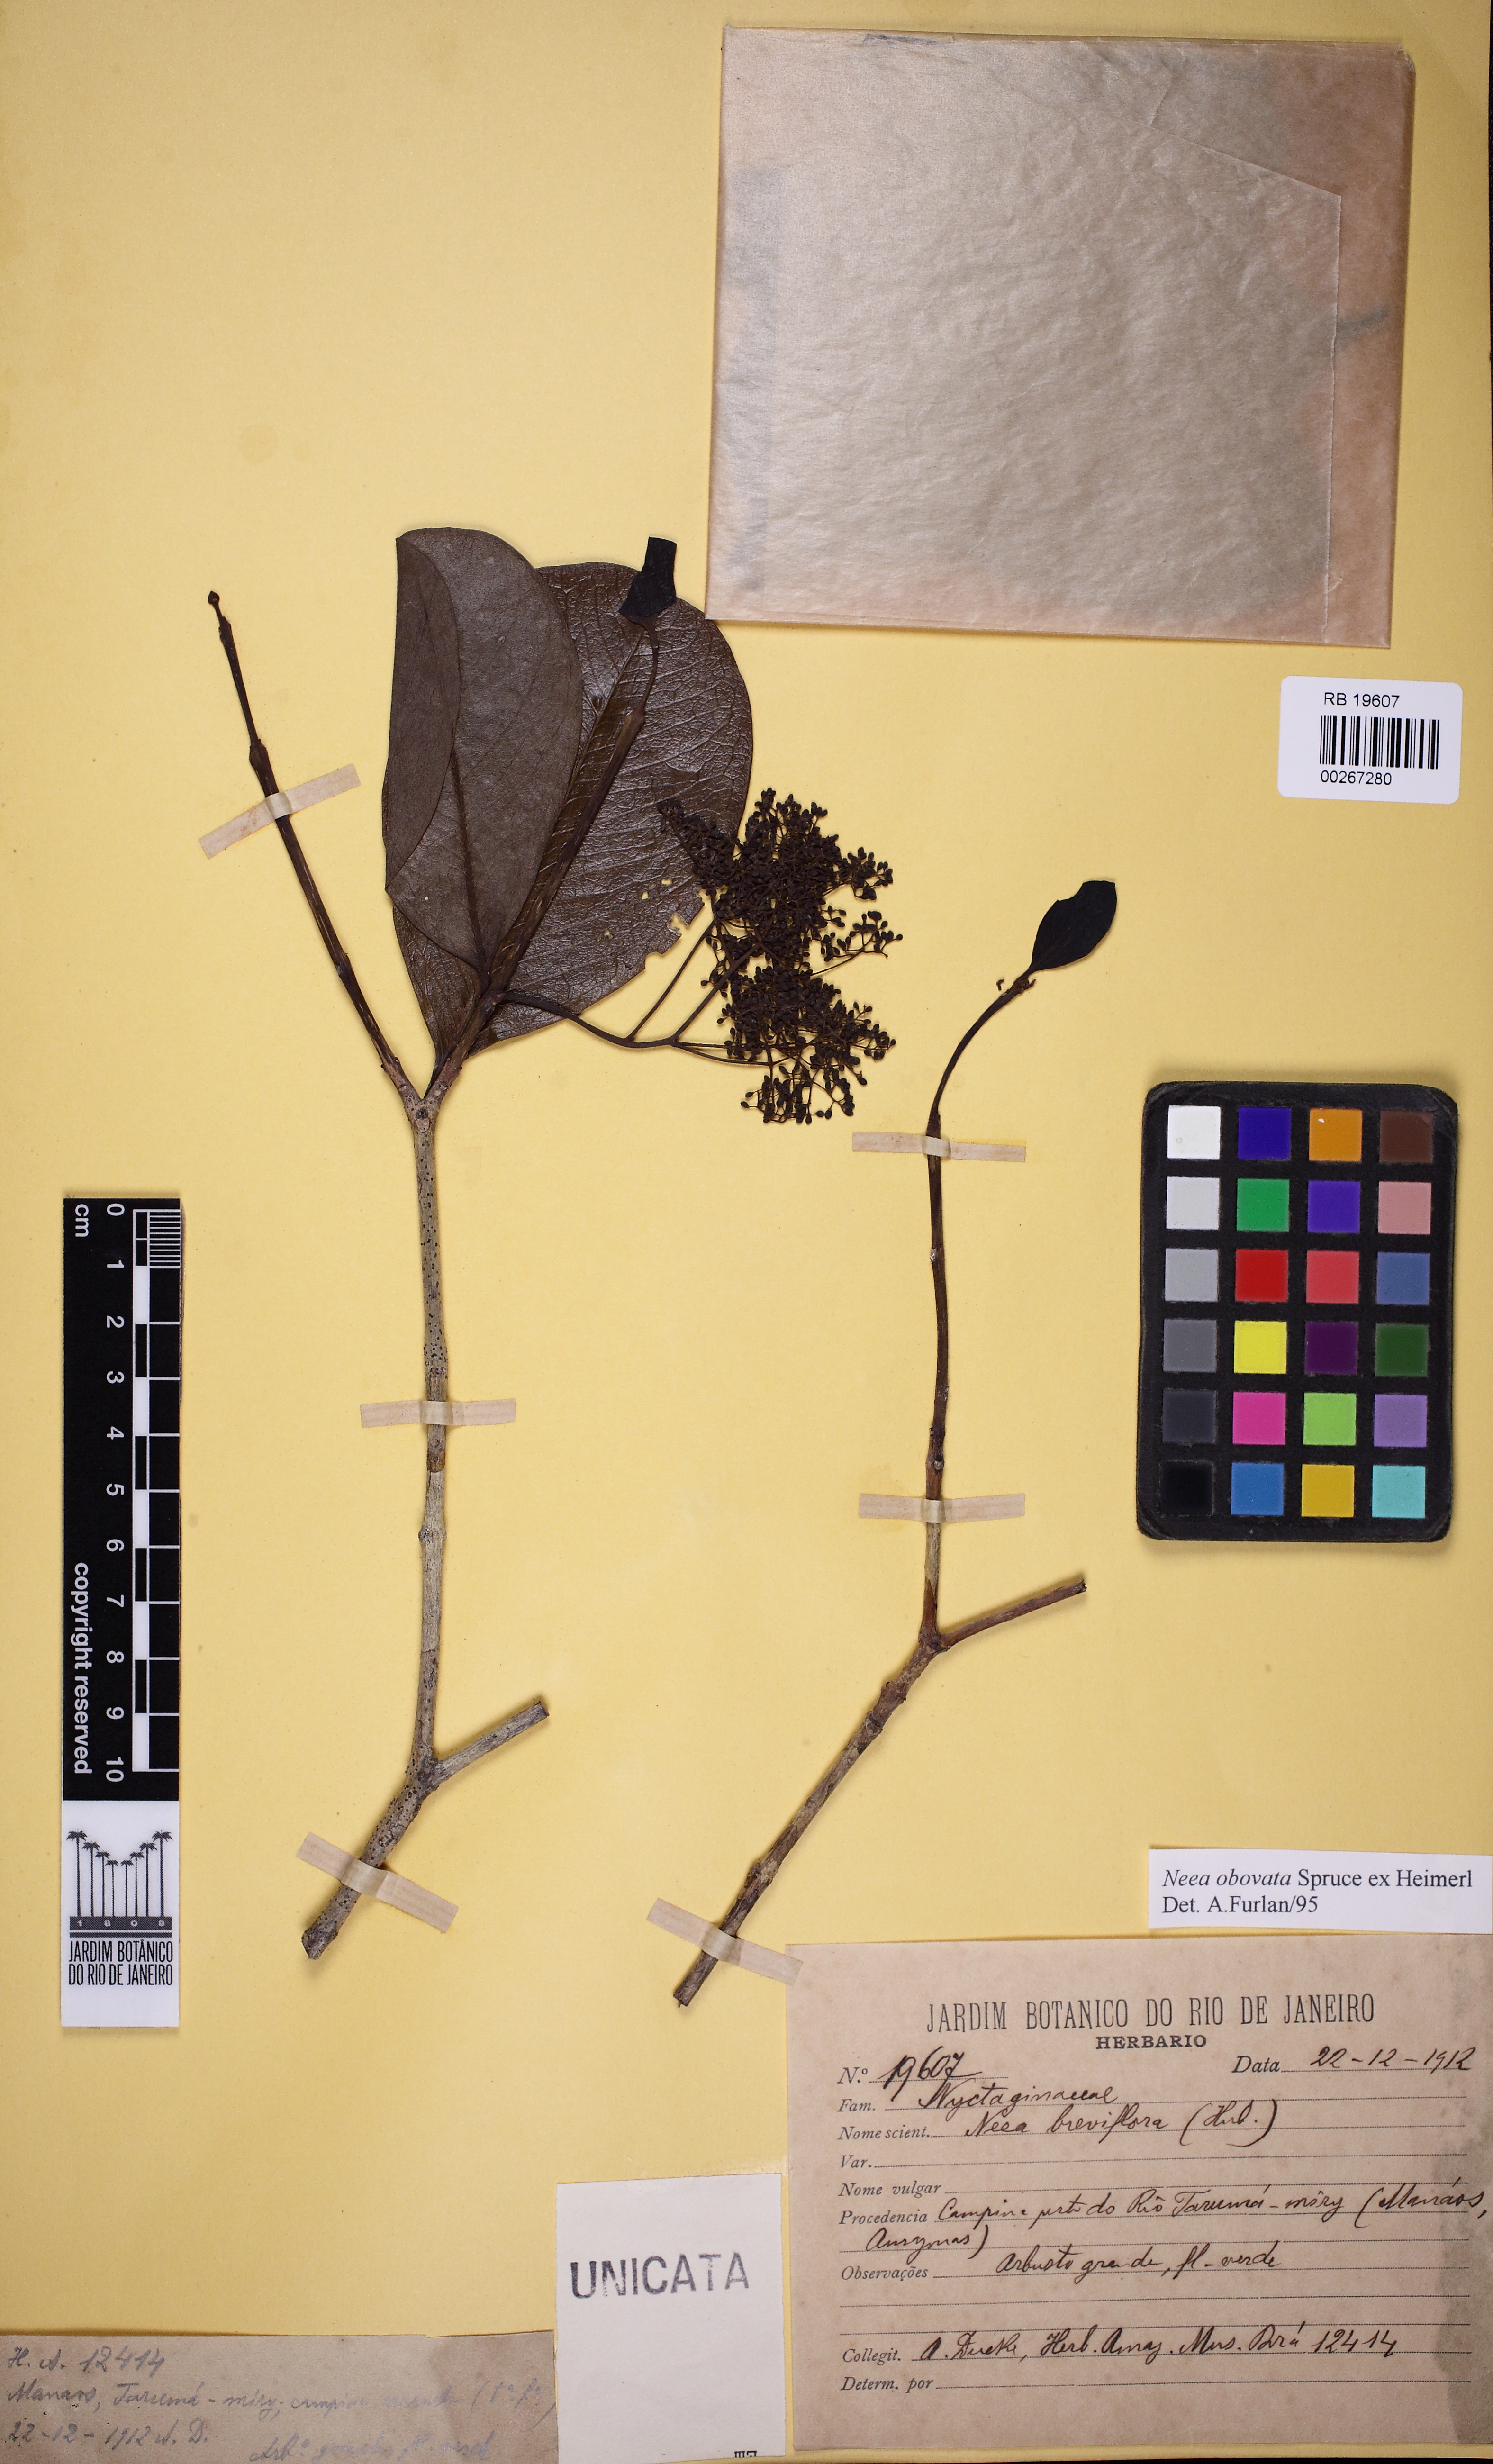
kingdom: Plantae
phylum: Tracheophyta
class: Magnoliopsida
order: Caryophyllales
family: Nyctaginaceae
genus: Neea
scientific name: Neea obovata
